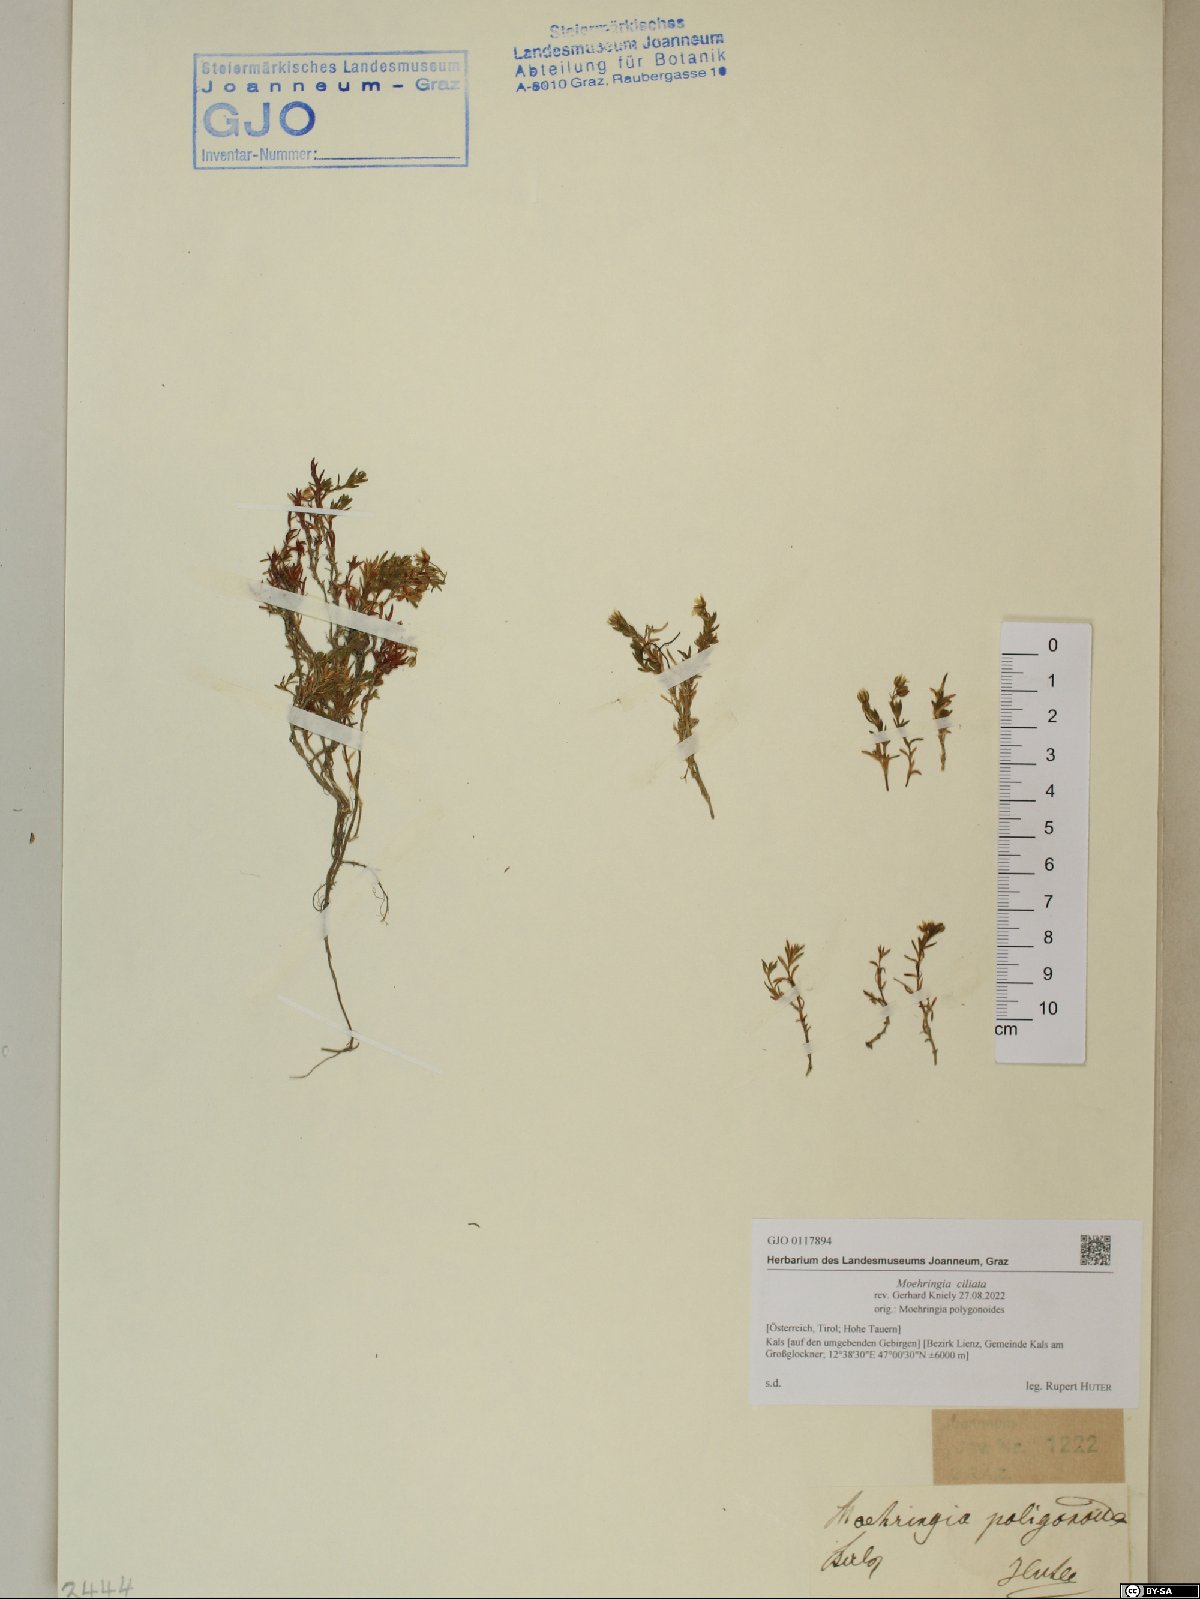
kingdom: Plantae
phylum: Tracheophyta
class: Magnoliopsida
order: Caryophyllales
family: Caryophyllaceae
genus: Moehringia
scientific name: Moehringia ciliata
